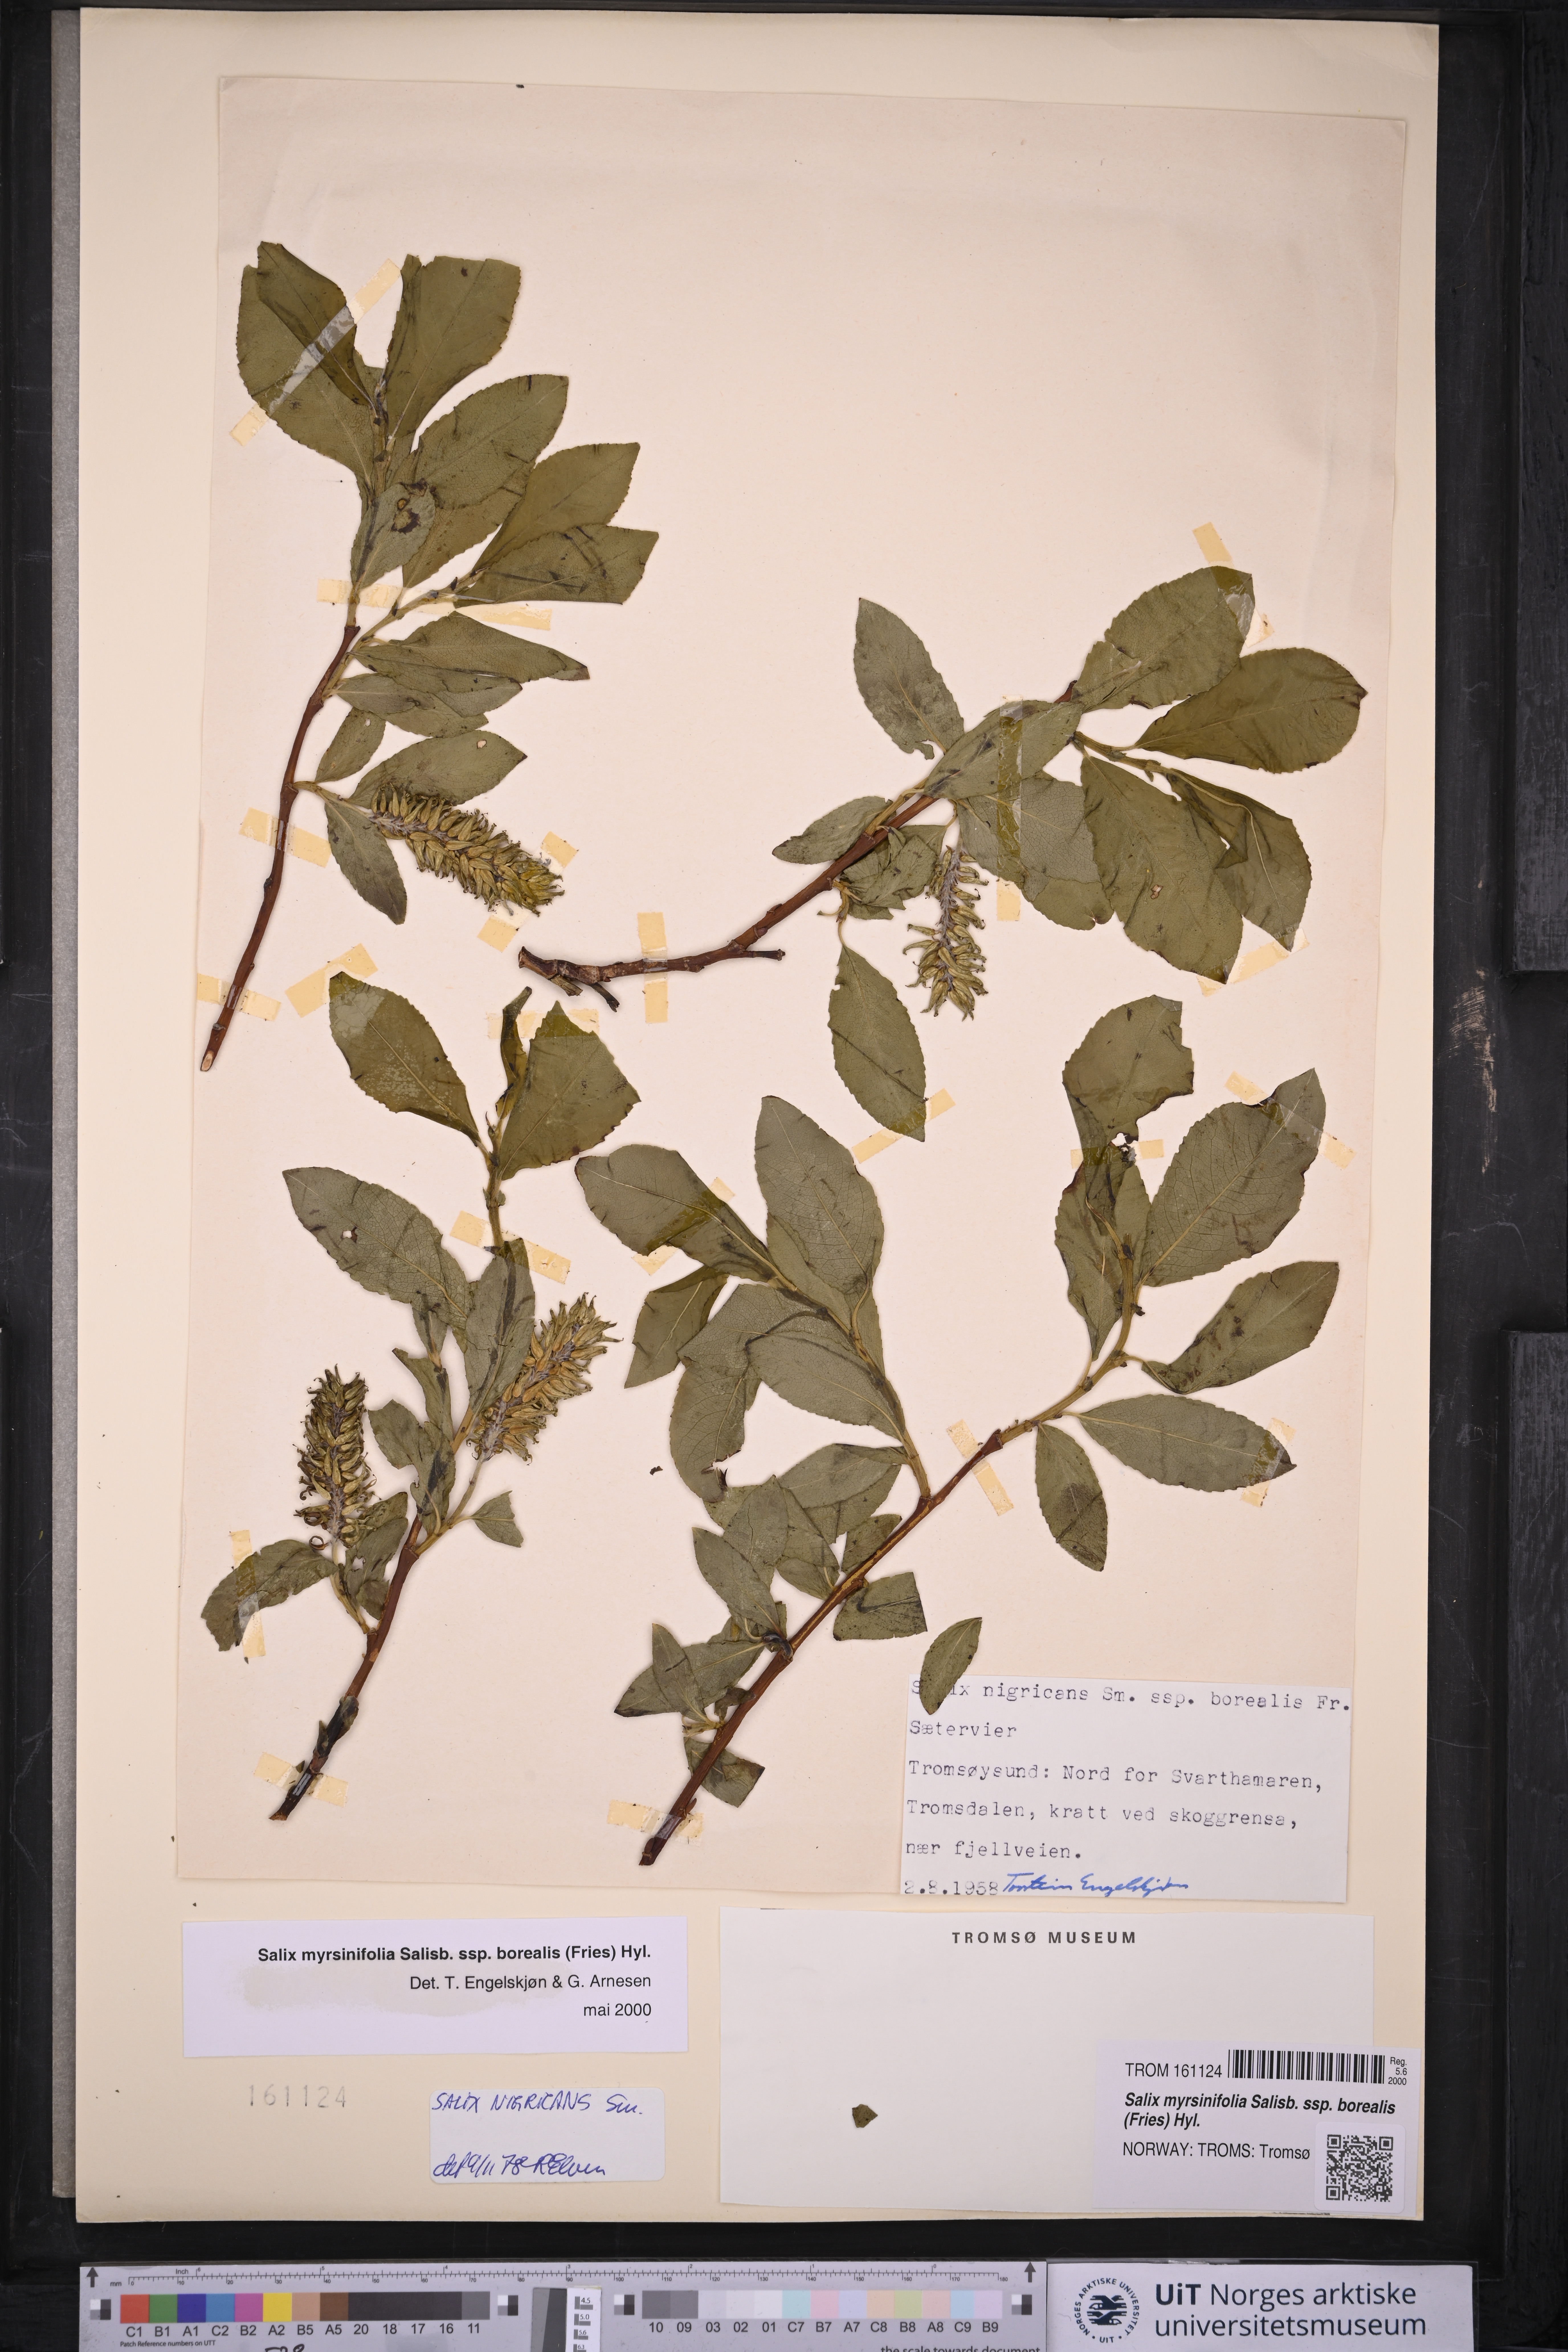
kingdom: Plantae
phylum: Tracheophyta
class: Magnoliopsida
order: Malpighiales
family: Salicaceae
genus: Salix
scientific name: Salix myrsinifolia
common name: Dark-leaved willow
